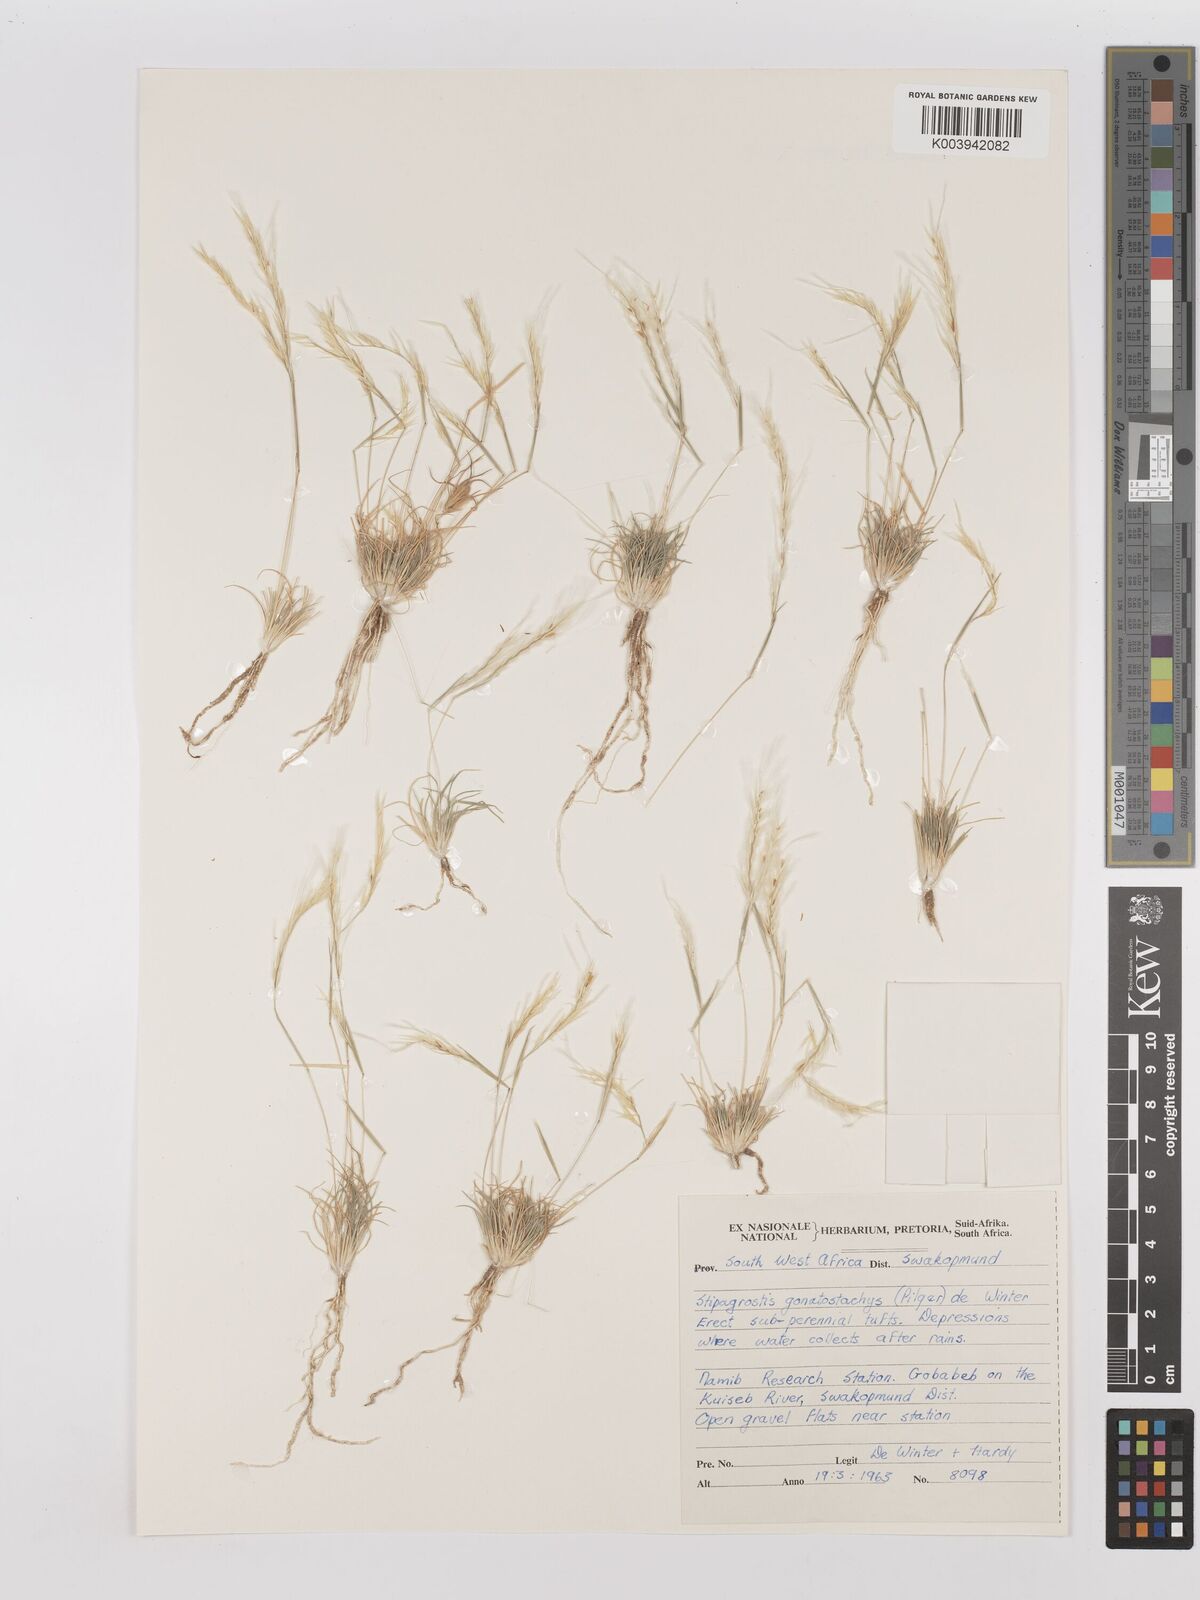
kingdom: Plantae
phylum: Tracheophyta
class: Liliopsida
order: Poales
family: Poaceae
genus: Stipagrostis
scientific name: Stipagrostis gonatostachys
